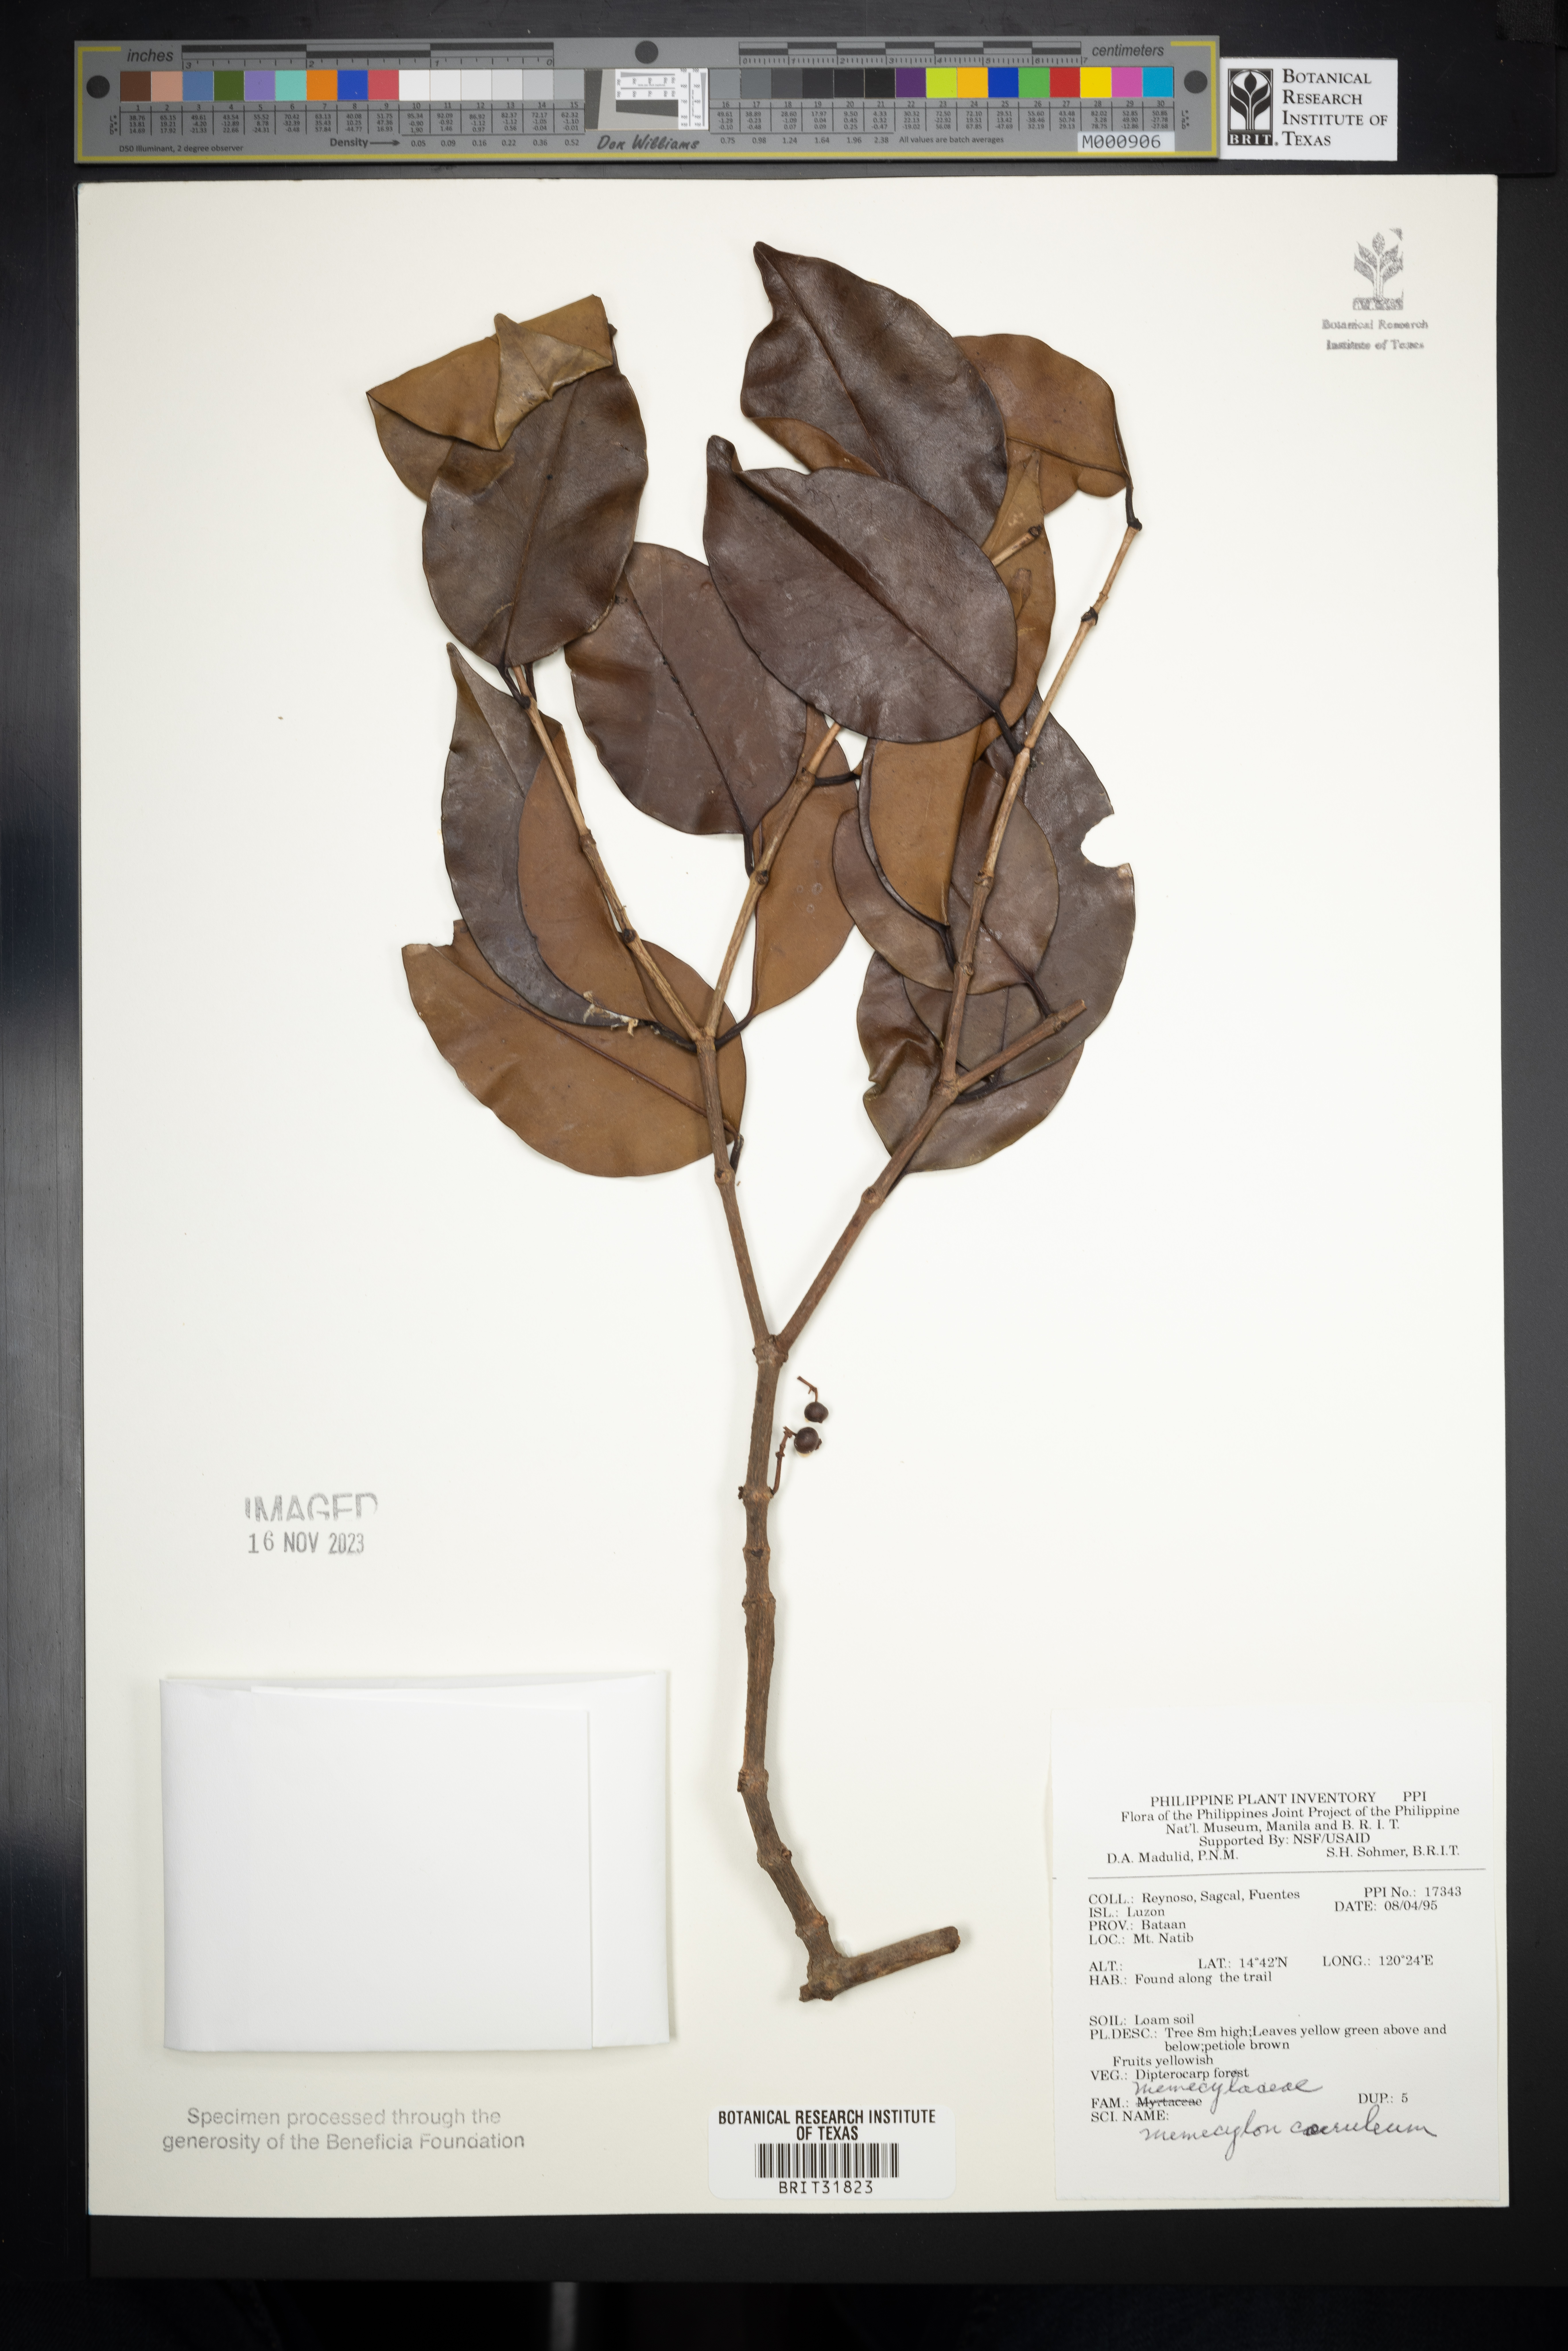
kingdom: Plantae
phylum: Tracheophyta
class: Magnoliopsida
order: Myrtales
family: Melastomataceae
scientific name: Melastomataceae
